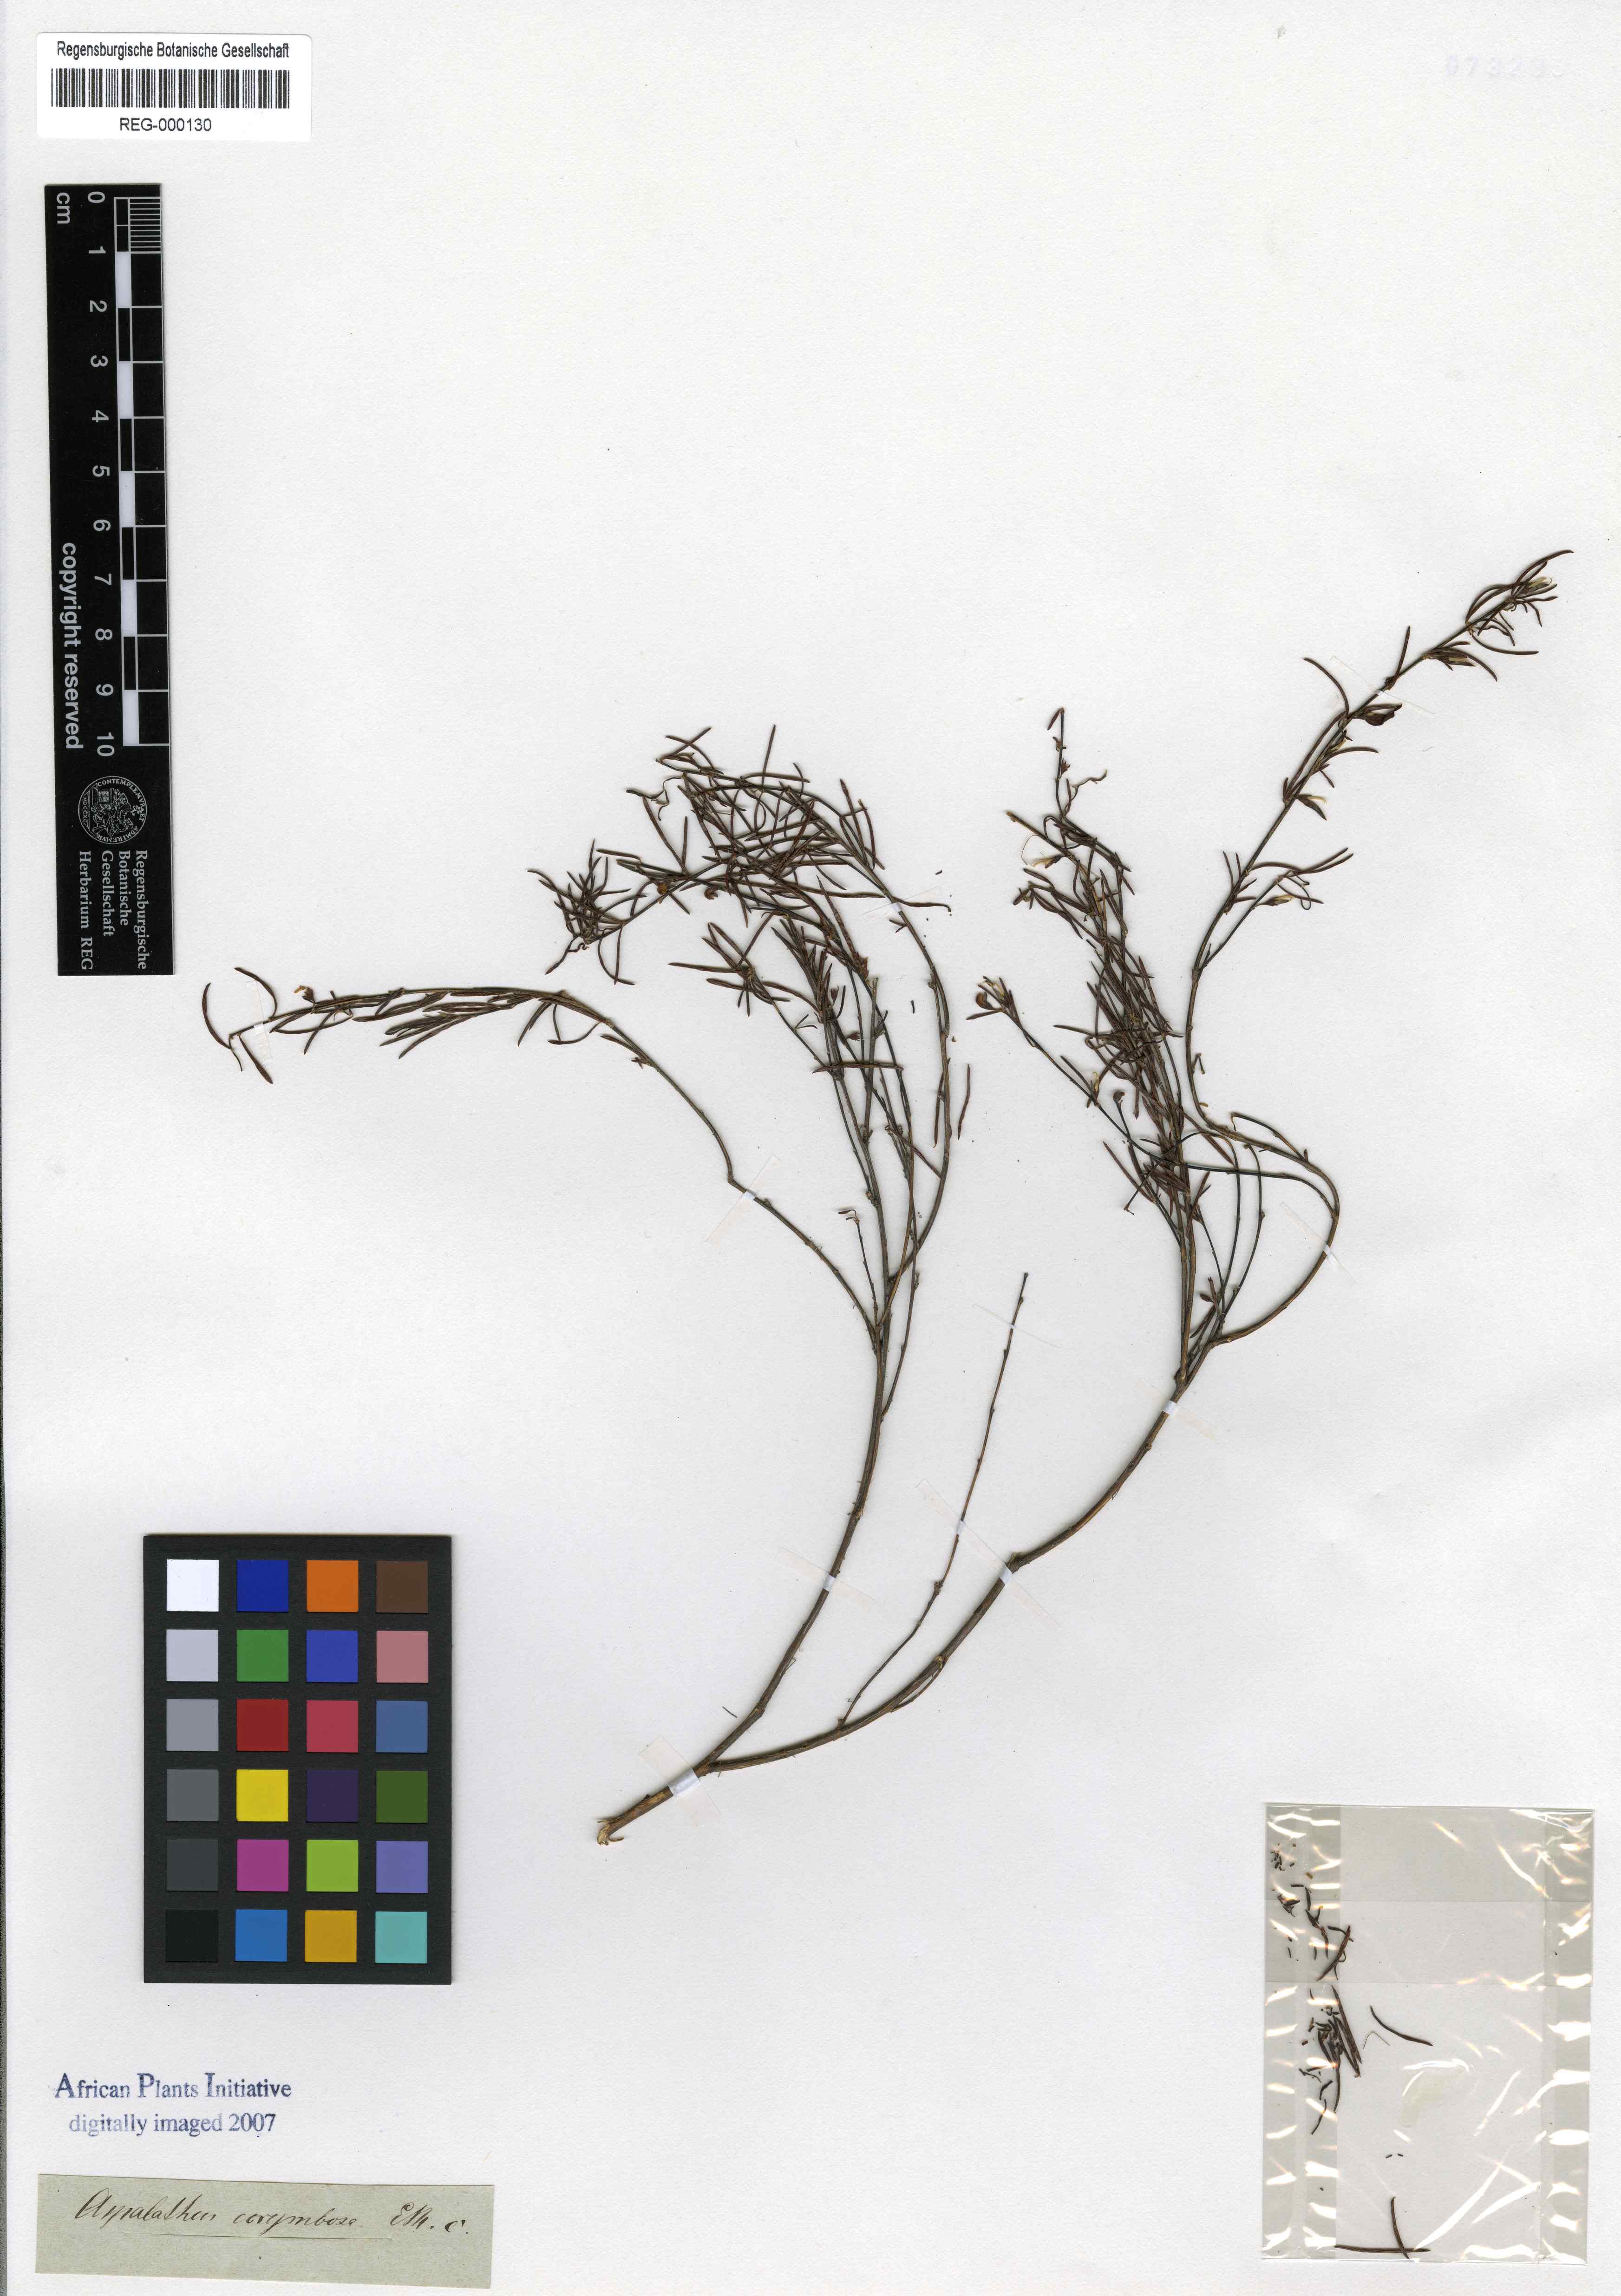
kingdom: Plantae
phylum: Tracheophyta
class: Magnoliopsida
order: Fabales
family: Fabaceae
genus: Aspalathus
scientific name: Aspalathus linearis
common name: Rooibos-tea
